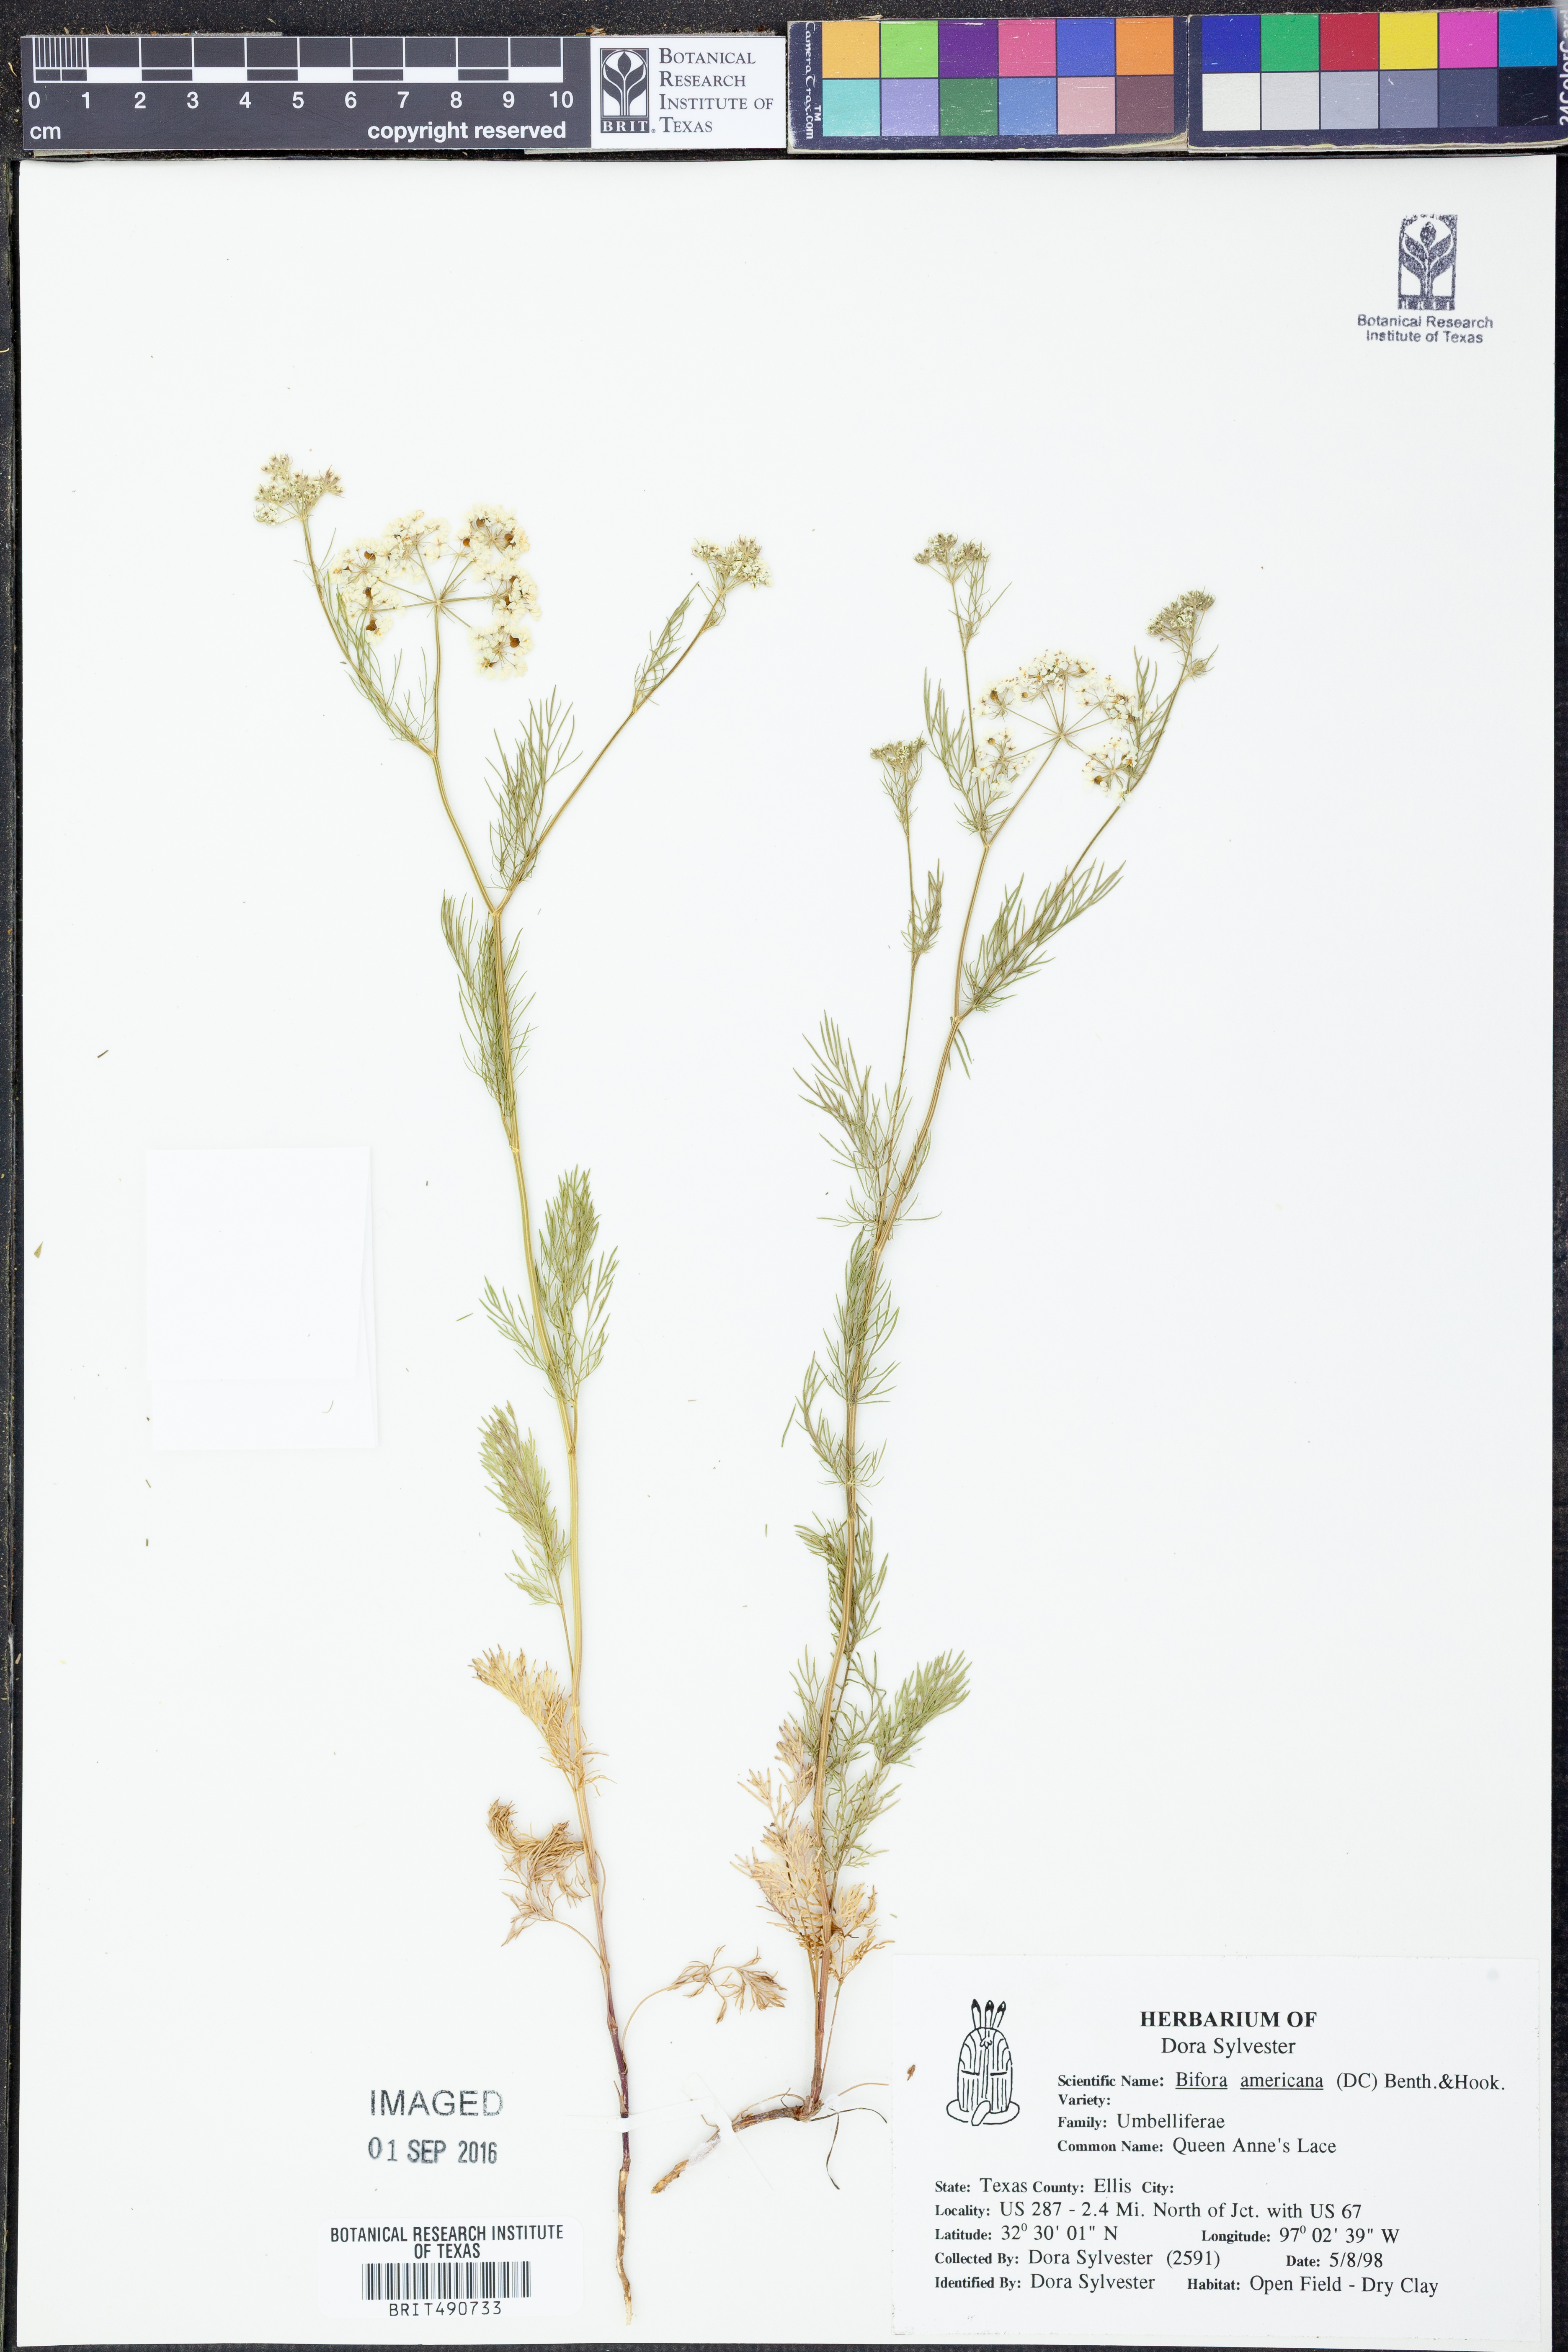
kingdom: Plantae
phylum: Tracheophyta
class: Magnoliopsida
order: Apiales
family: Apiaceae
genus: Atrema
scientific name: Atrema americanum
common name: Prairie-bishop
